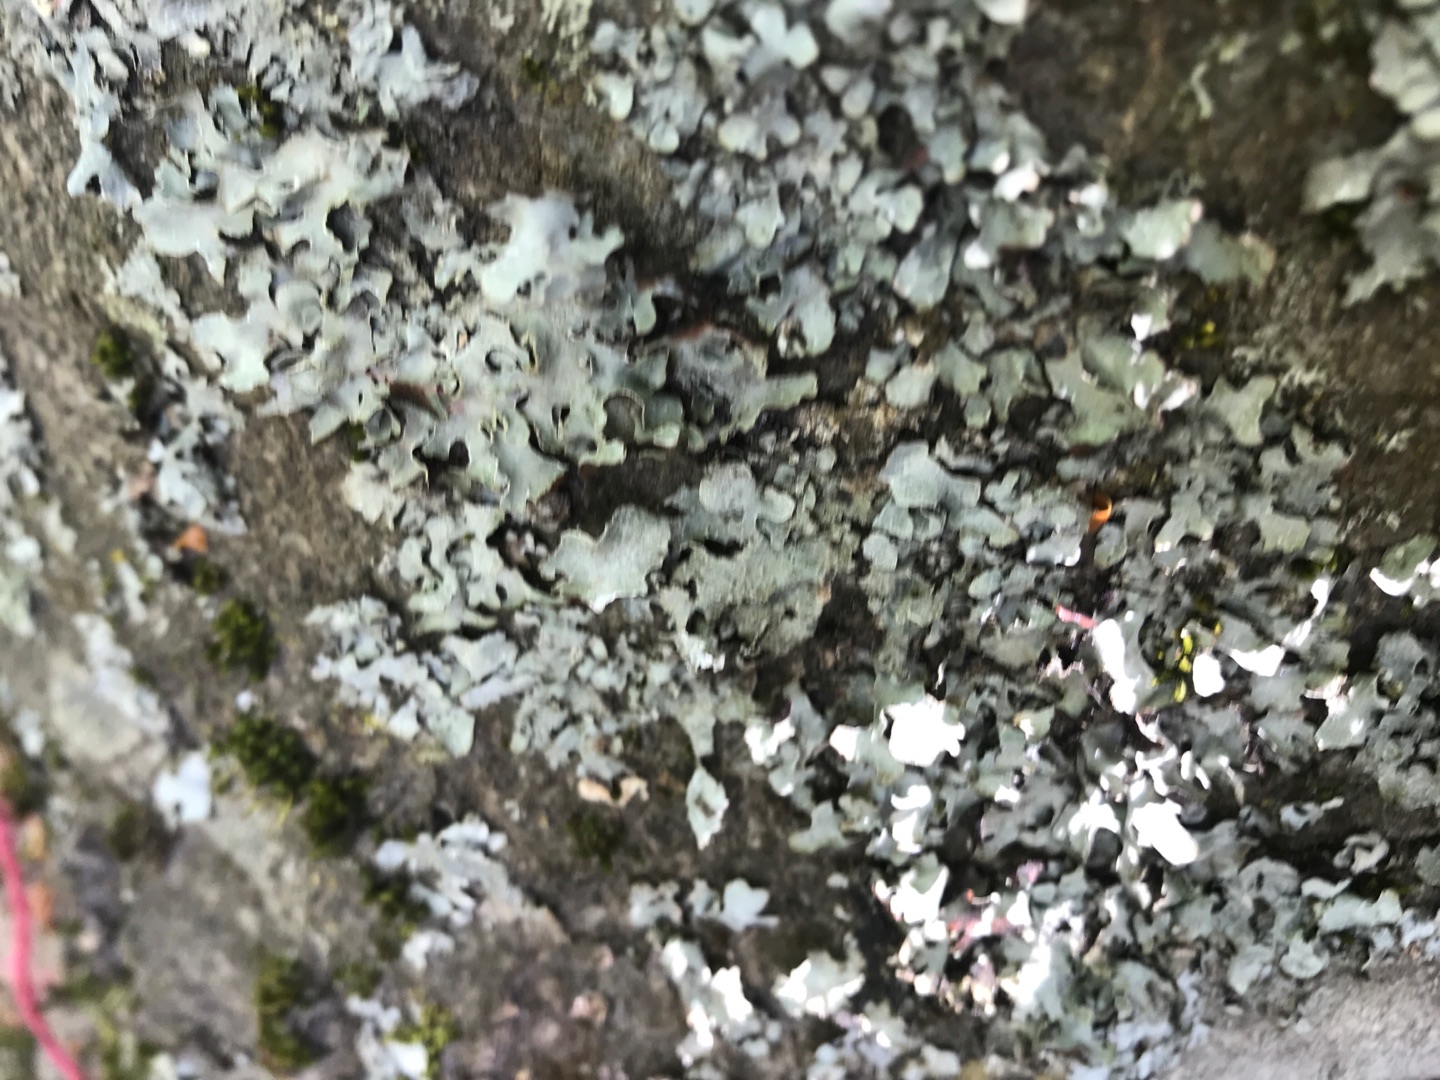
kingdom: Fungi
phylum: Ascomycota
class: Lecanoromycetes
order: Lecanorales
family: Parmeliaceae
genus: Parmelia
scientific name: Parmelia sulcata
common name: Rynket skållav
